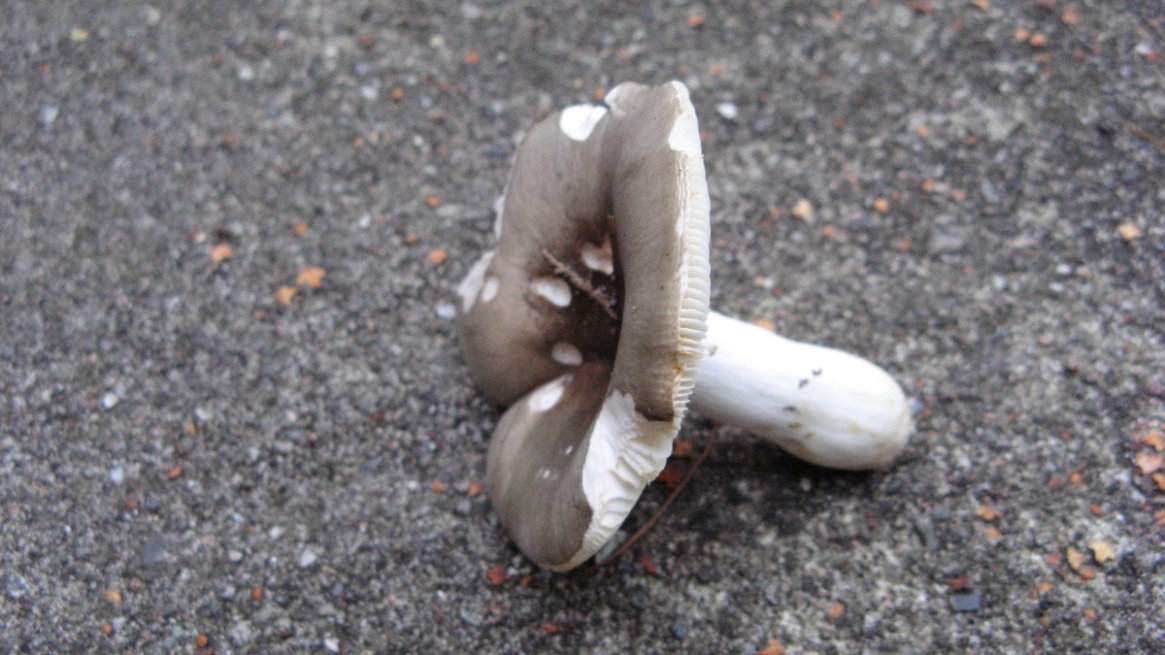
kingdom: Fungi
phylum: Basidiomycota
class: Agaricomycetes
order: Russulales
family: Russulaceae
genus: Russula
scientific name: Russula versicolor
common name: foranderlig skørhat
